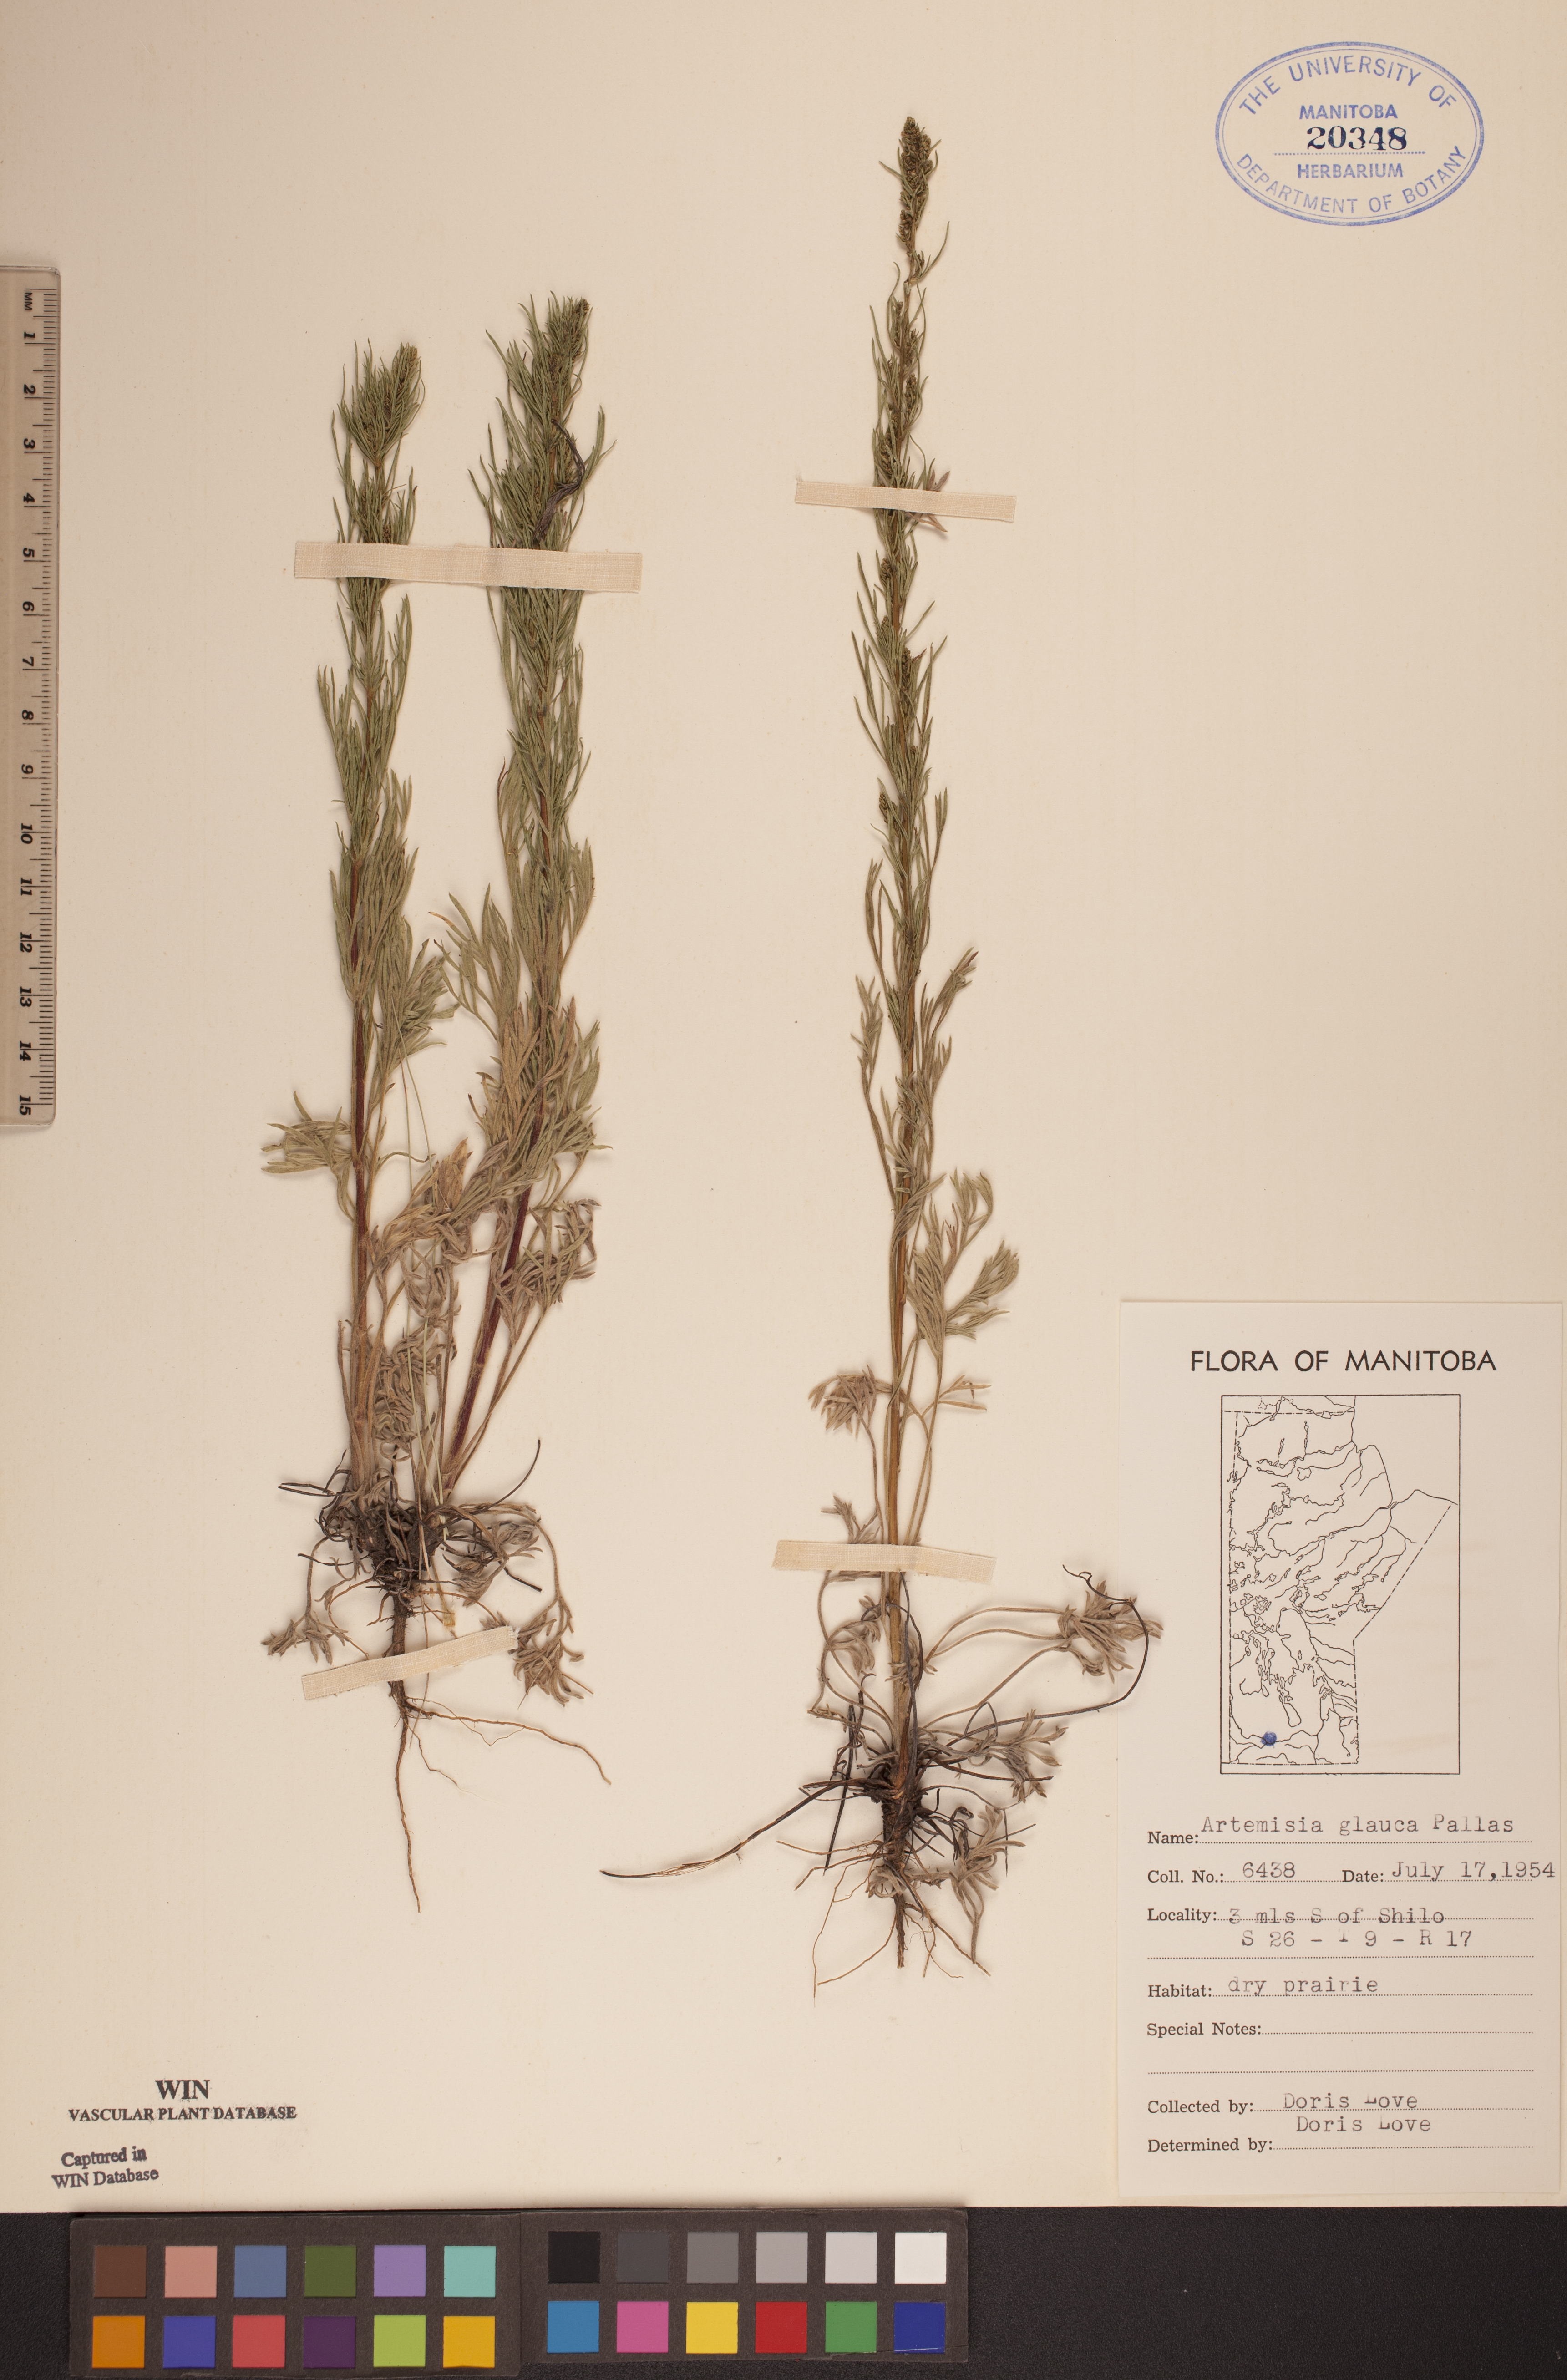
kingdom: Plantae
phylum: Tracheophyta
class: Magnoliopsida
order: Asterales
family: Asteraceae
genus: Artemisia
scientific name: Artemisia glauca
